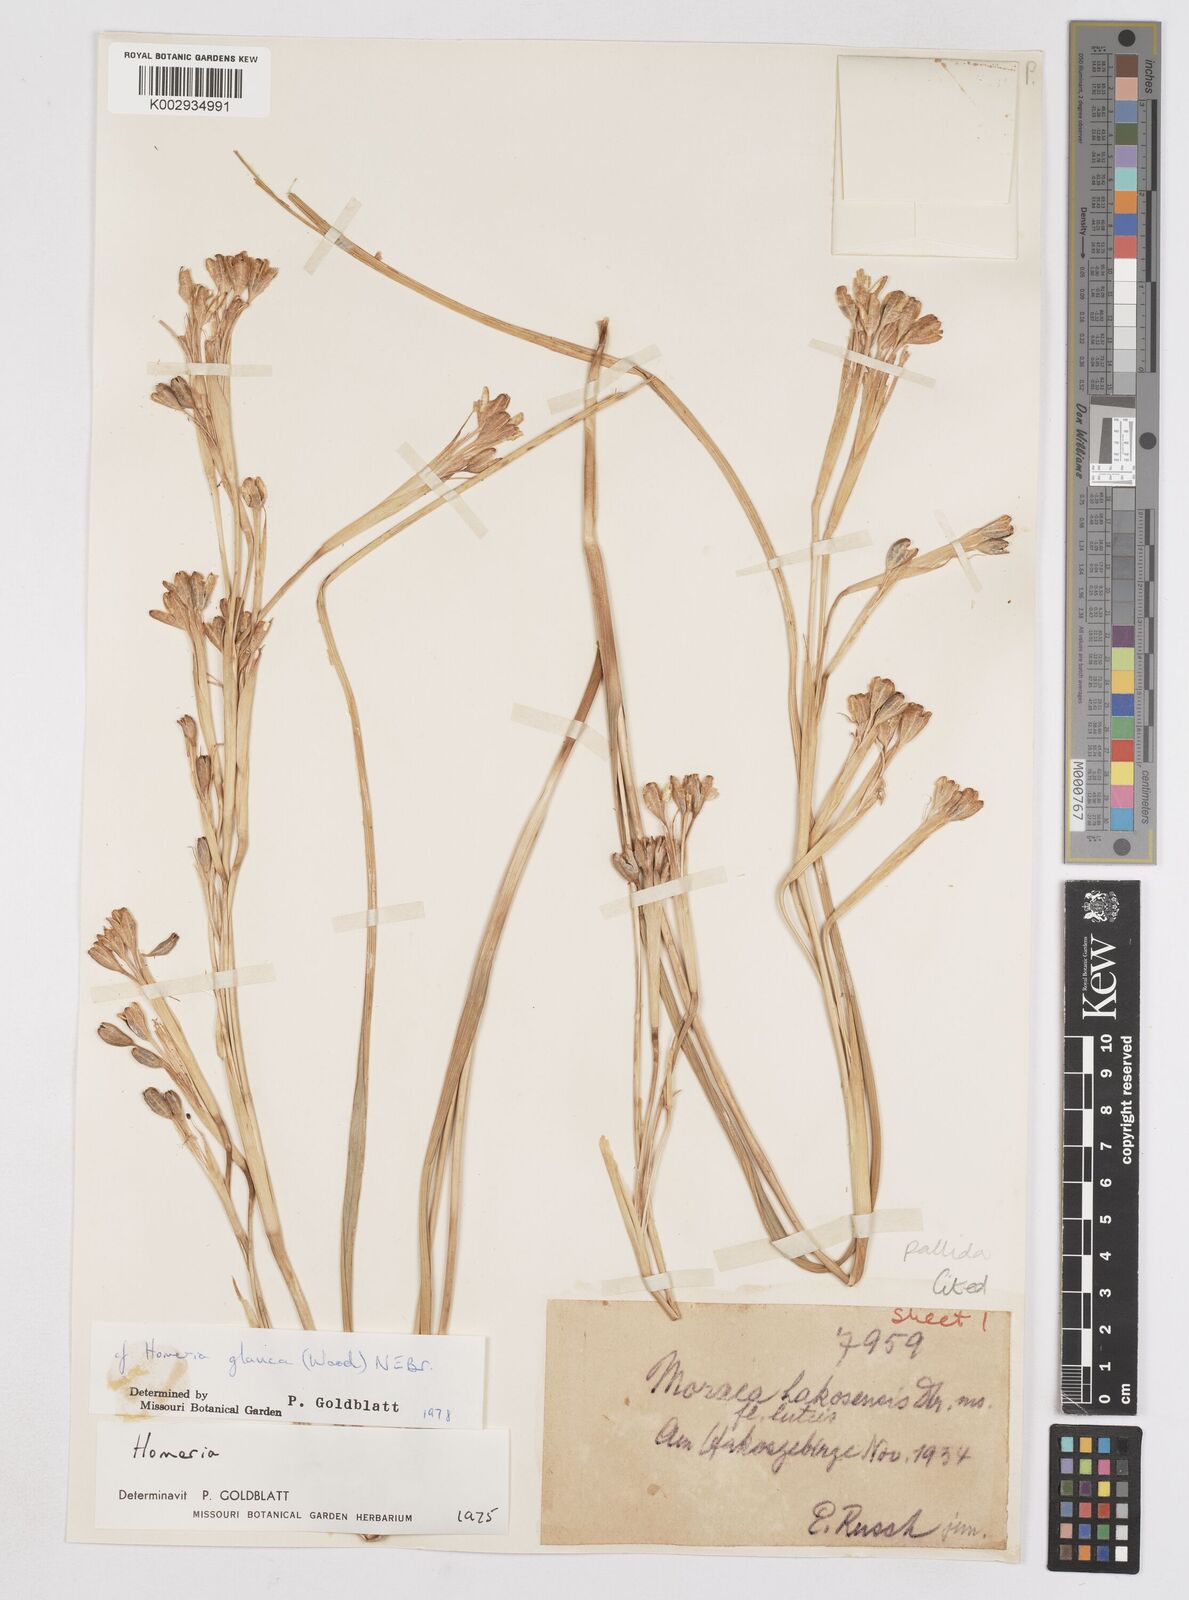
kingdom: Plantae
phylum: Tracheophyta
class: Liliopsida
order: Asparagales
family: Iridaceae
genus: Moraea
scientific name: Moraea pallida
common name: Yellow tulp
